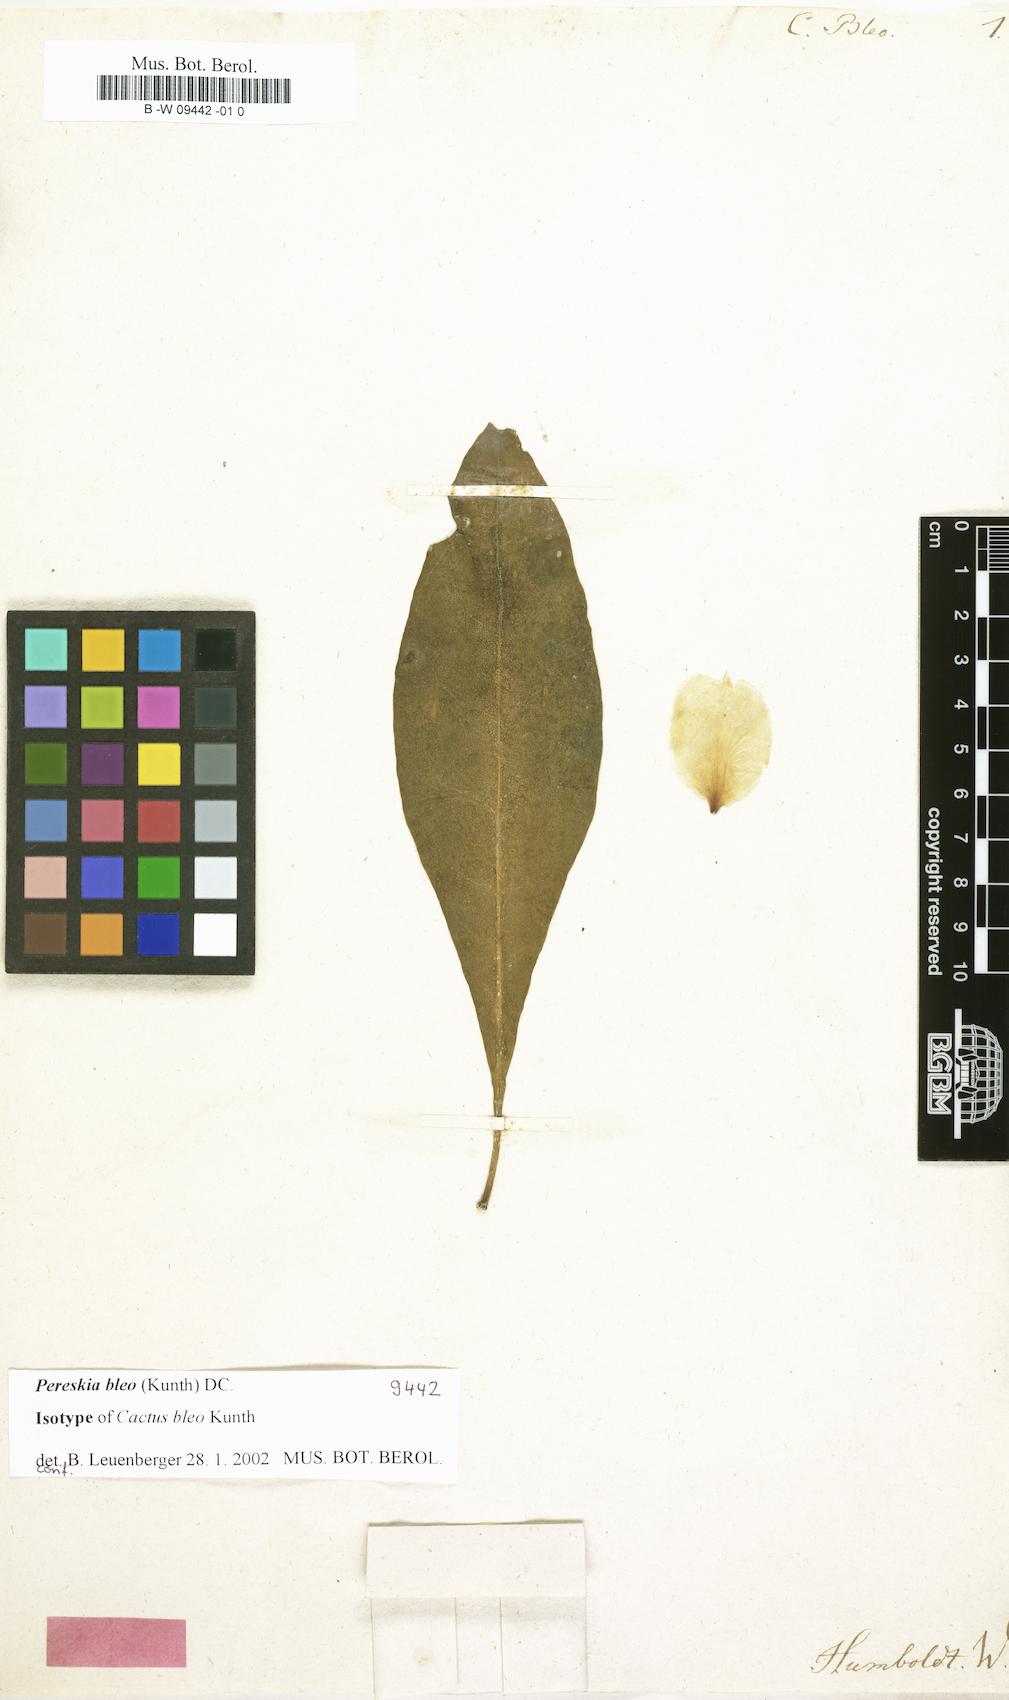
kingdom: Plantae
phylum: Tracheophyta
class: Magnoliopsida
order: Caryophyllales
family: Cactaceae
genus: Leuenbergeria
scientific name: Leuenbergeria bleo
